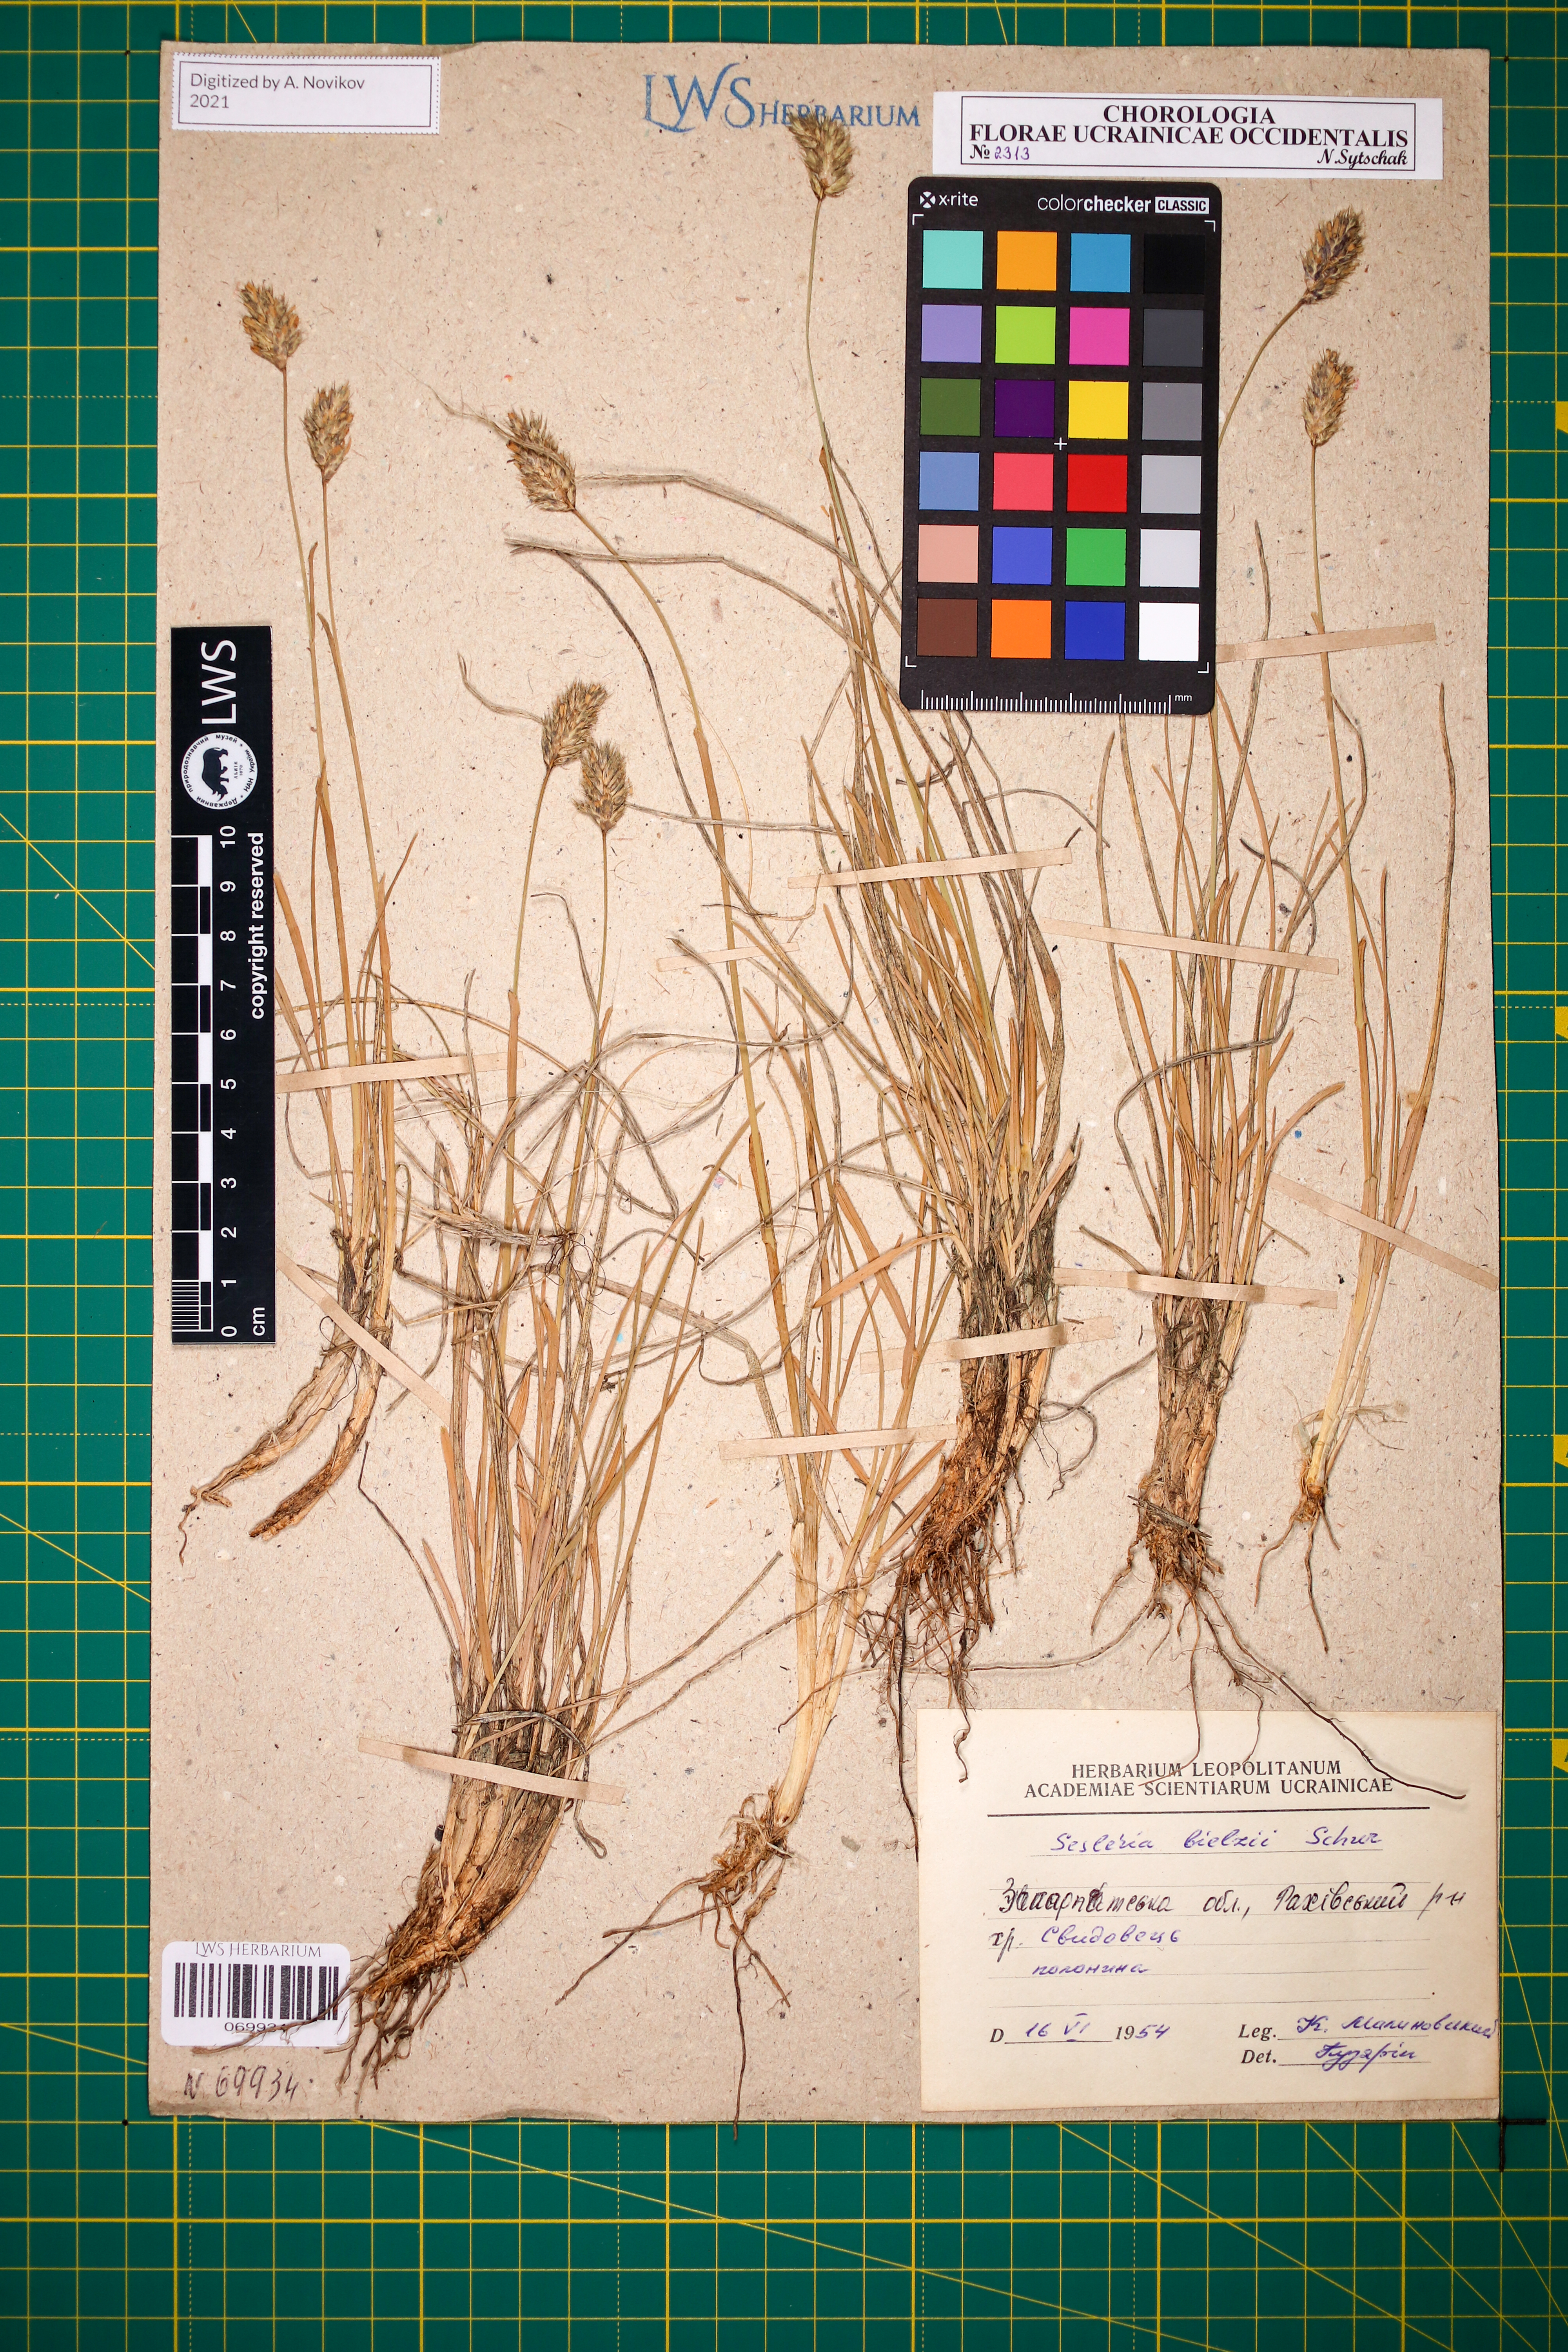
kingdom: Plantae
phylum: Tracheophyta
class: Liliopsida
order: Poales
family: Poaceae
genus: Sesleria
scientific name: Sesleria bielzii
